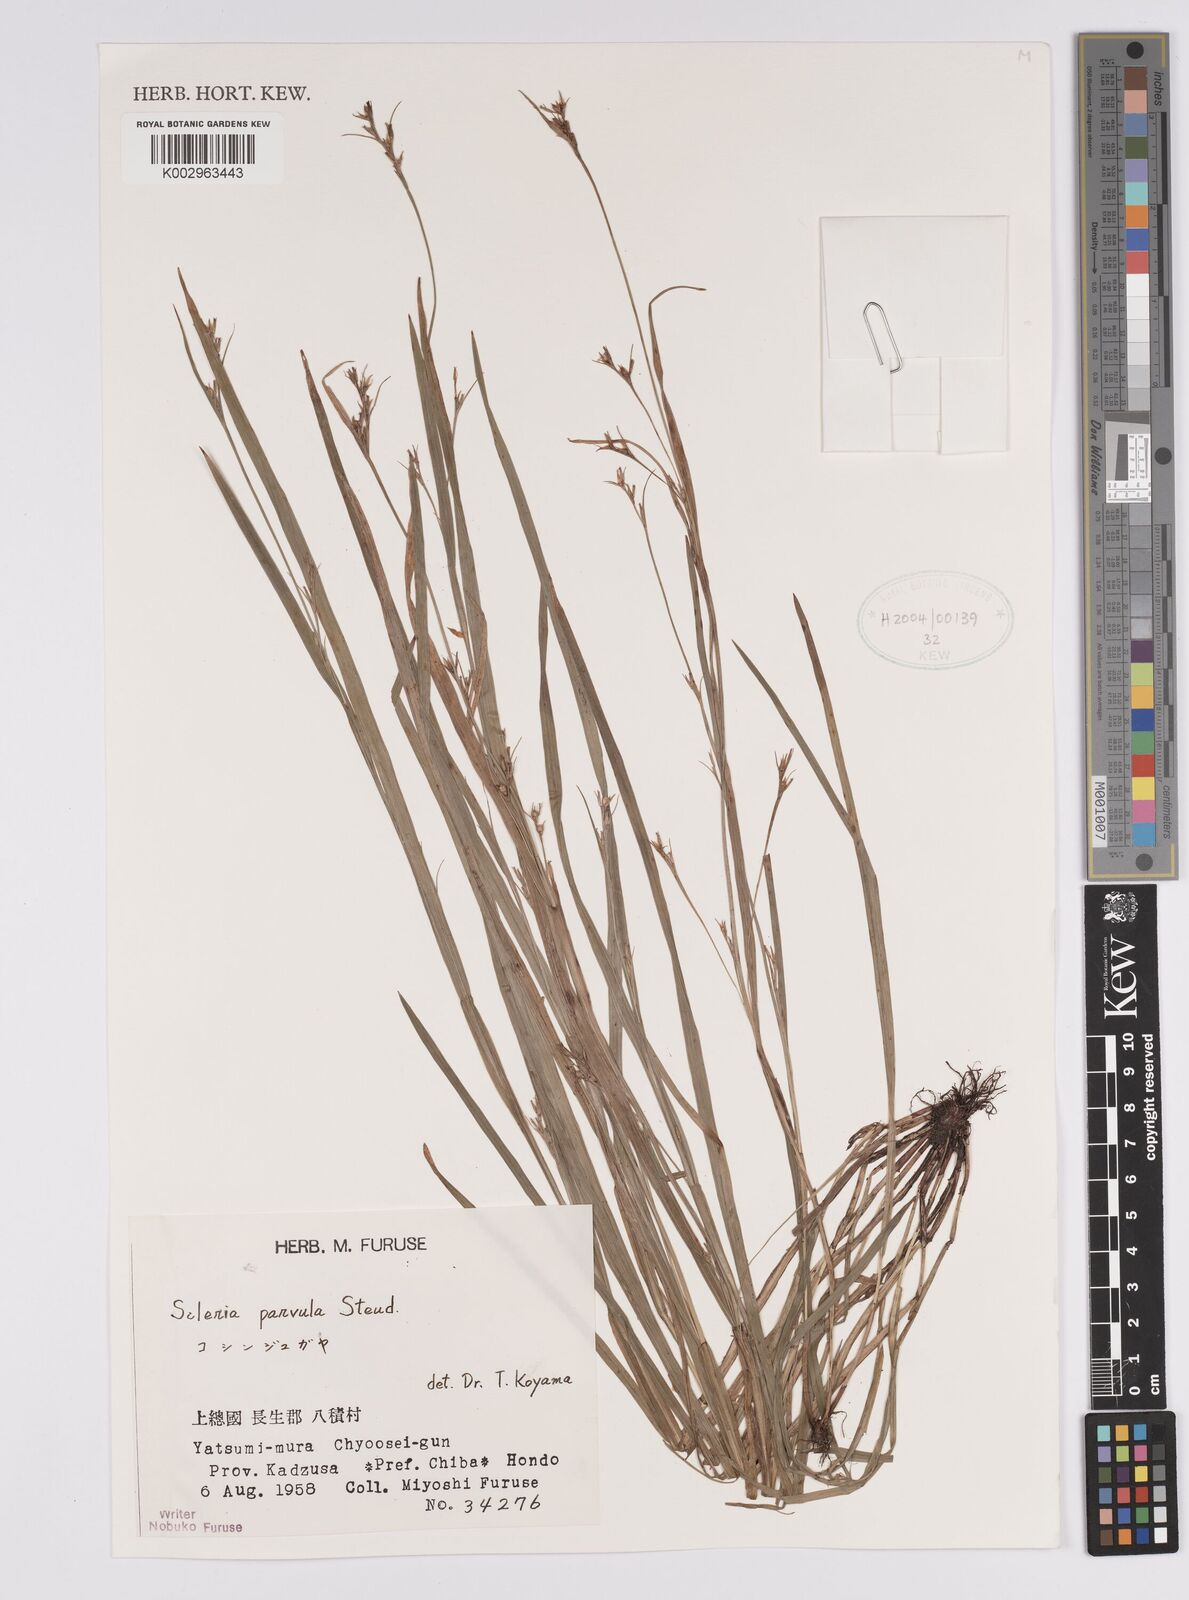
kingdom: Plantae
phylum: Tracheophyta
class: Liliopsida
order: Poales
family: Cyperaceae
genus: Scleria
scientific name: Scleria parvula
